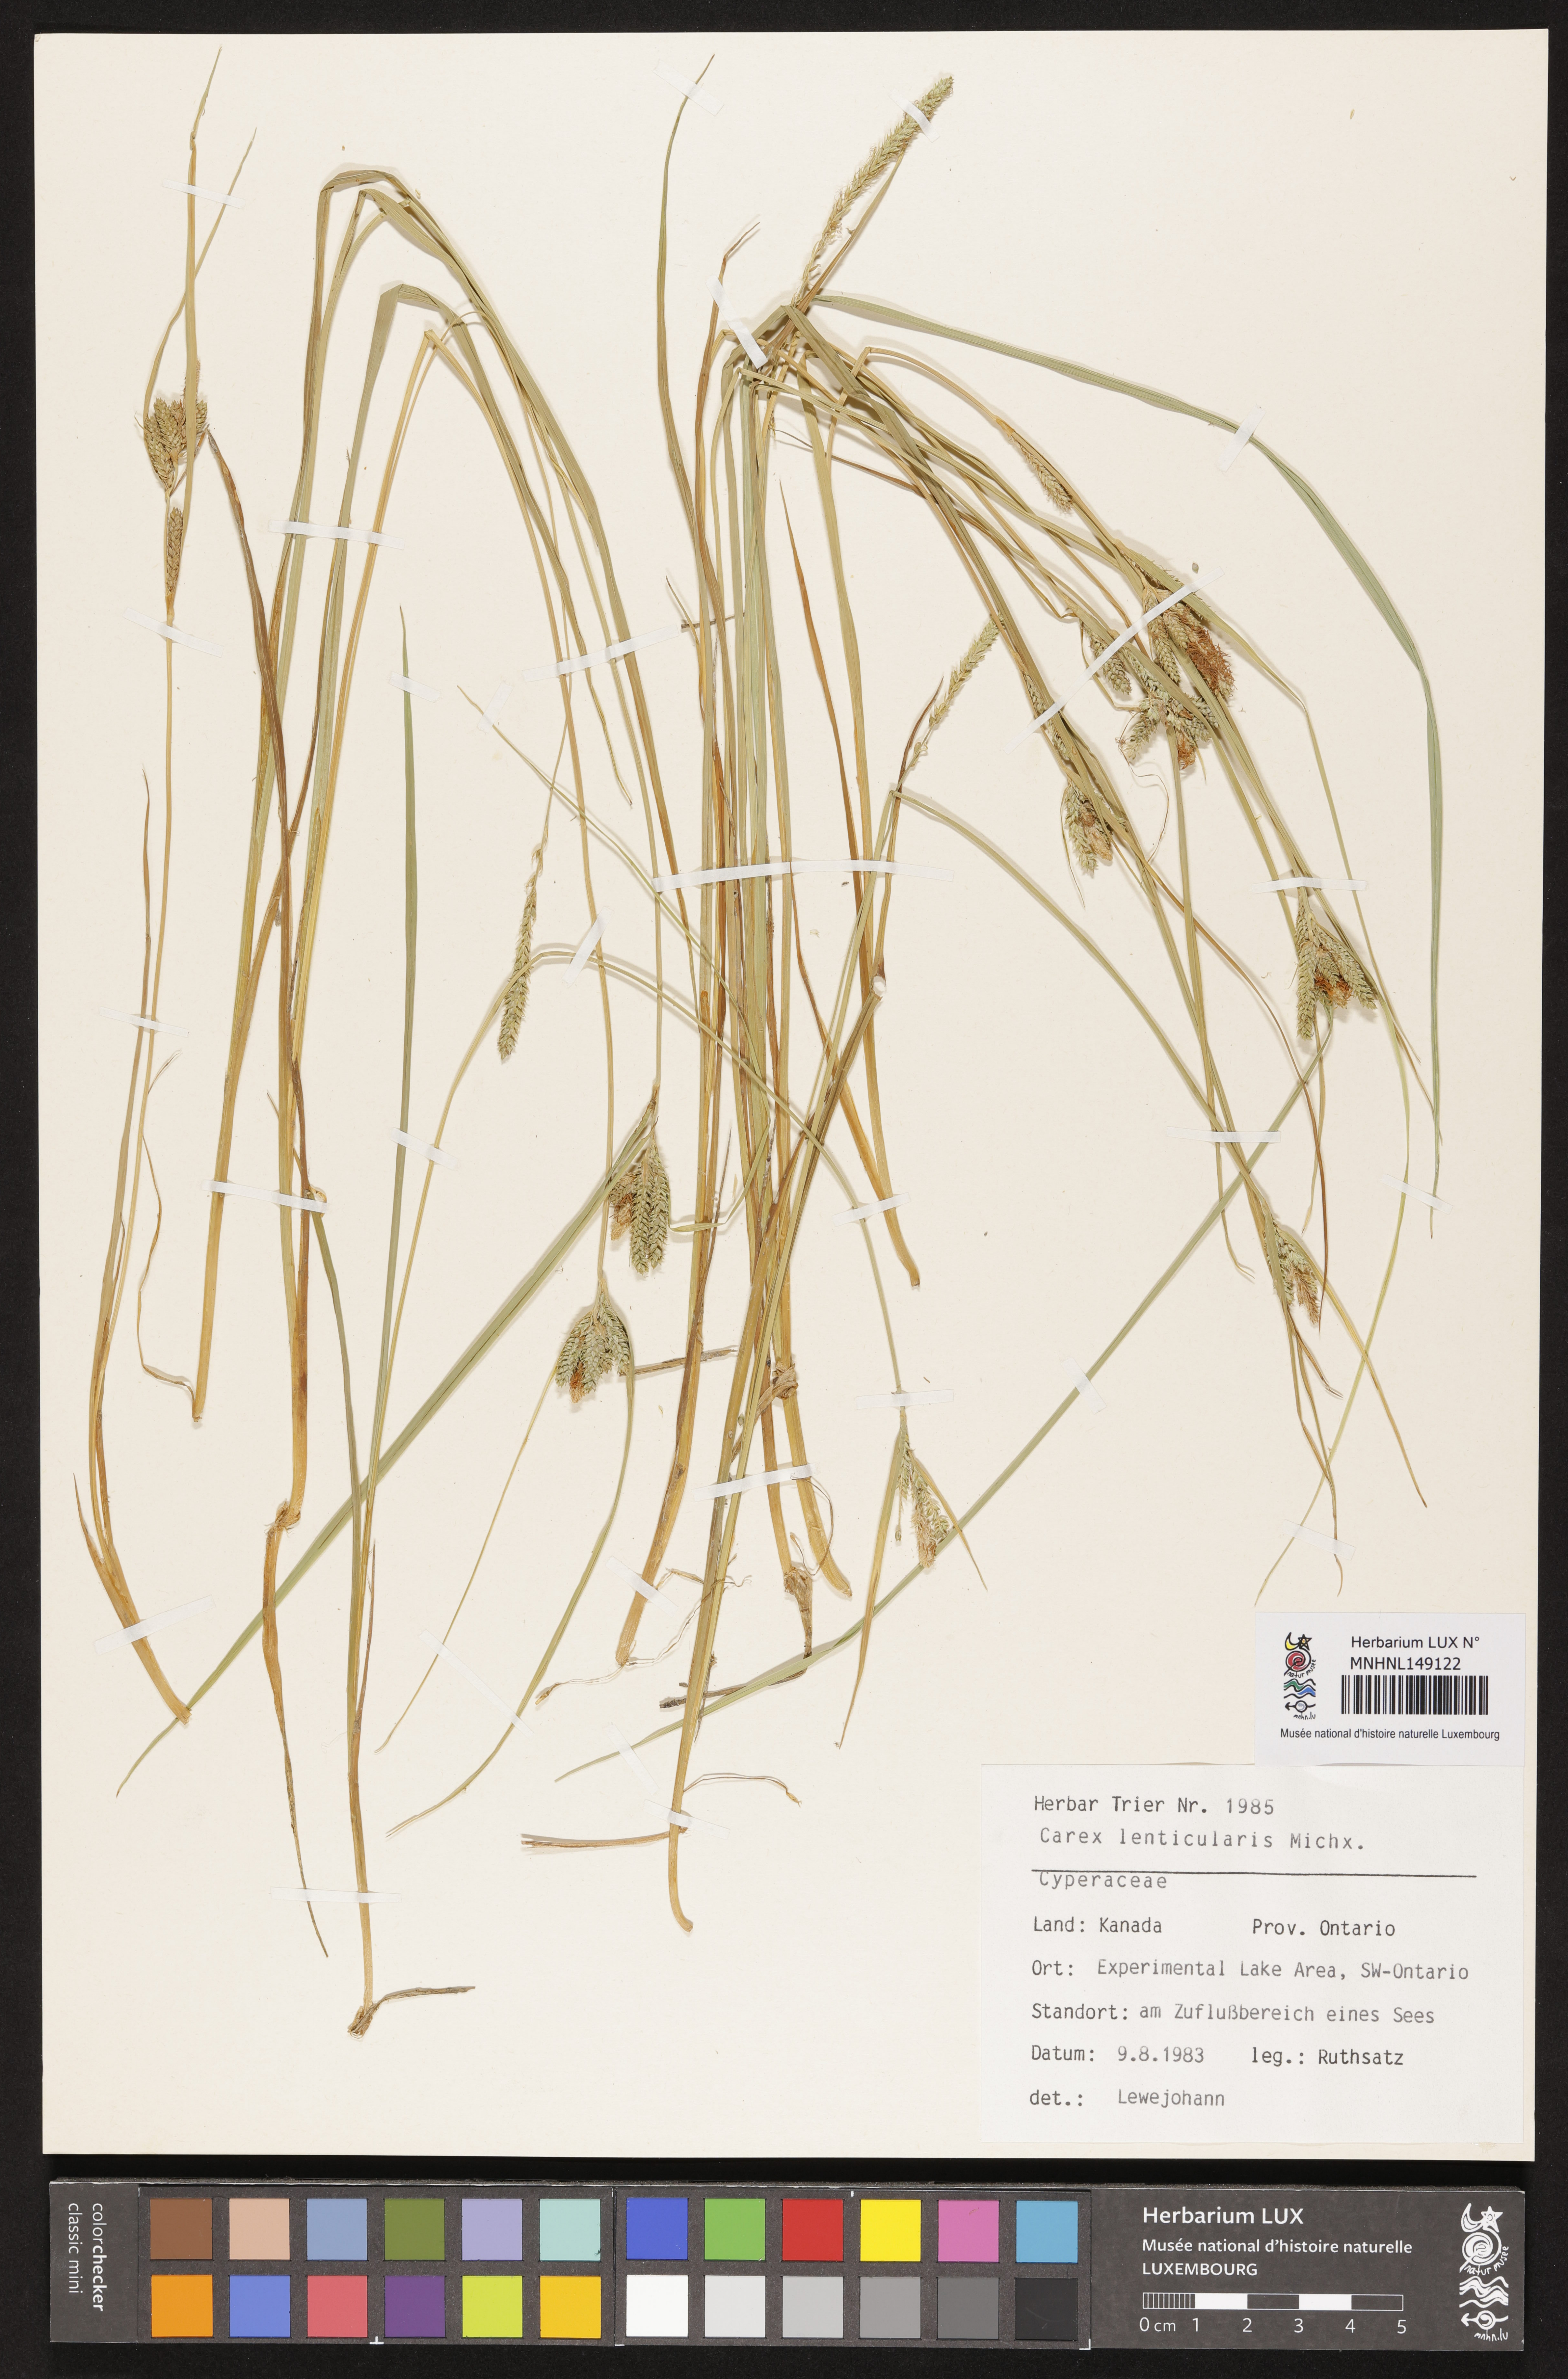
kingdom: Plantae
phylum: Tracheophyta
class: Liliopsida
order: Poales
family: Cyperaceae
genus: Carex
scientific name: Carex lenticularis
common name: Lakeshore sedge
